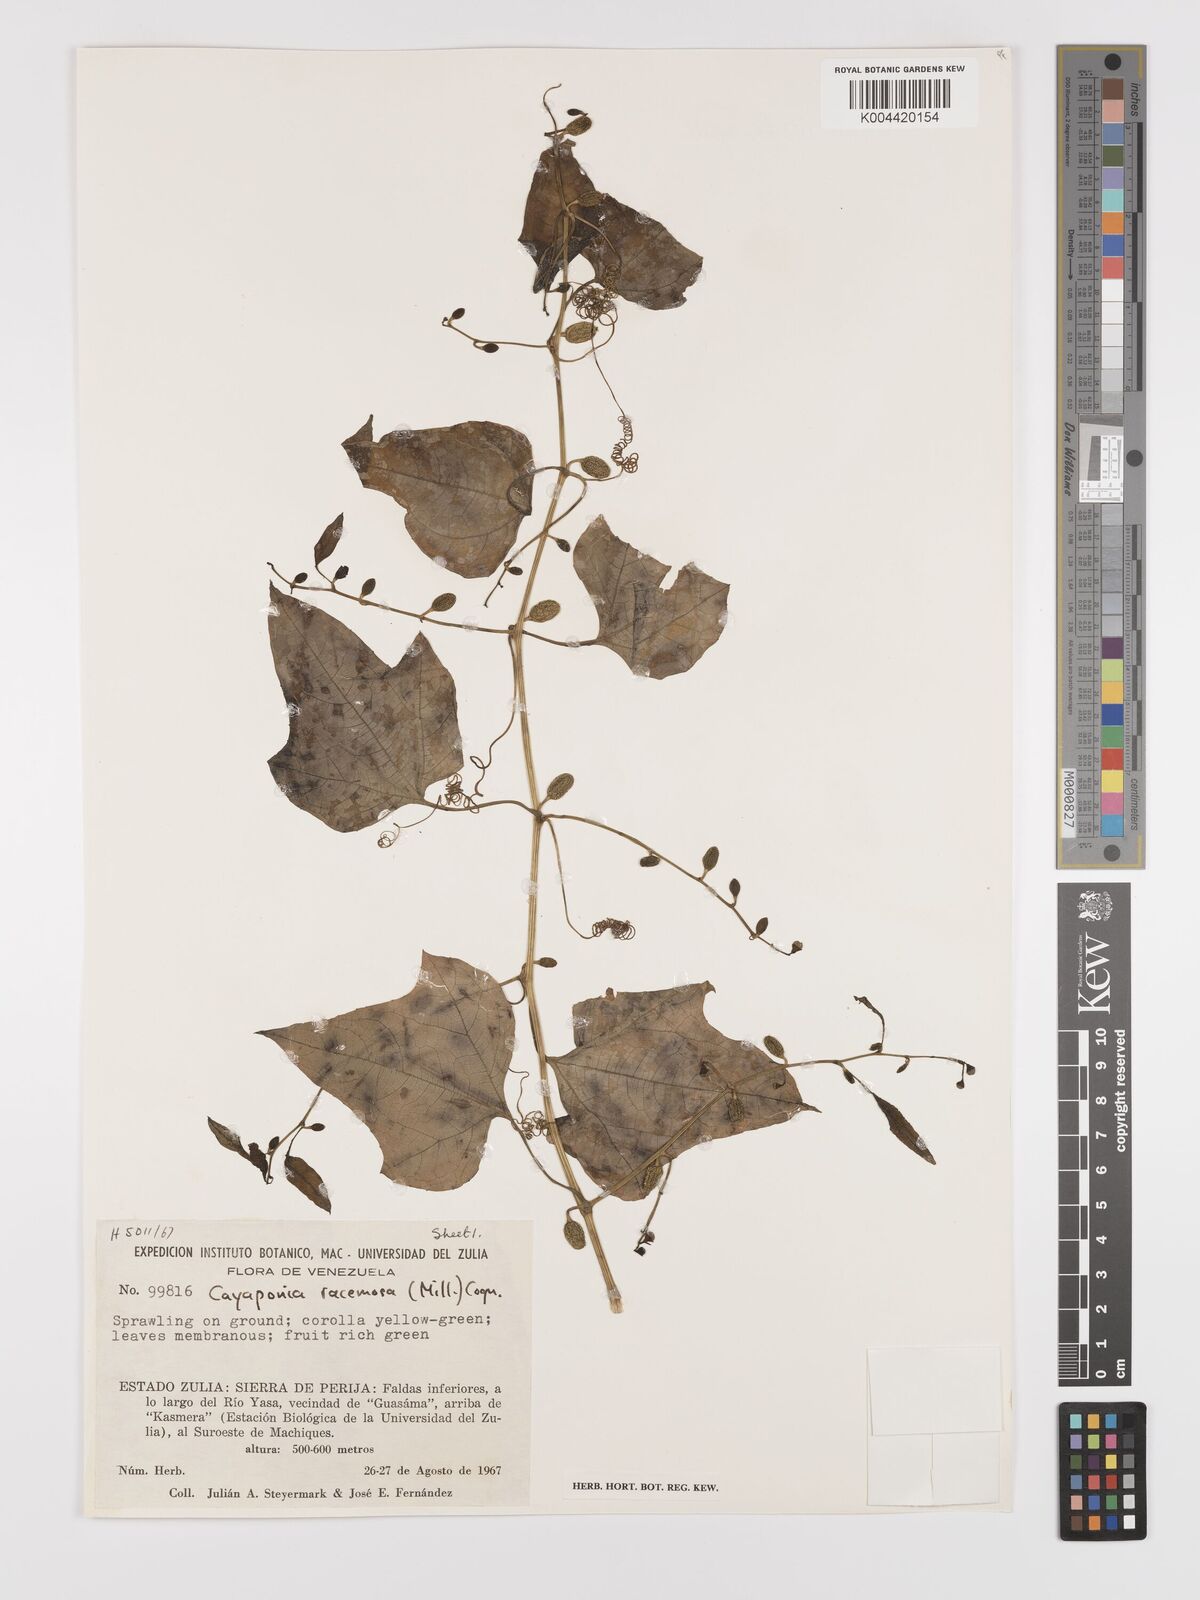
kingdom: Plantae
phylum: Tracheophyta
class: Magnoliopsida
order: Cucurbitales
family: Cucurbitaceae
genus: Cayaponia
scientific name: Cayaponia racemosa
